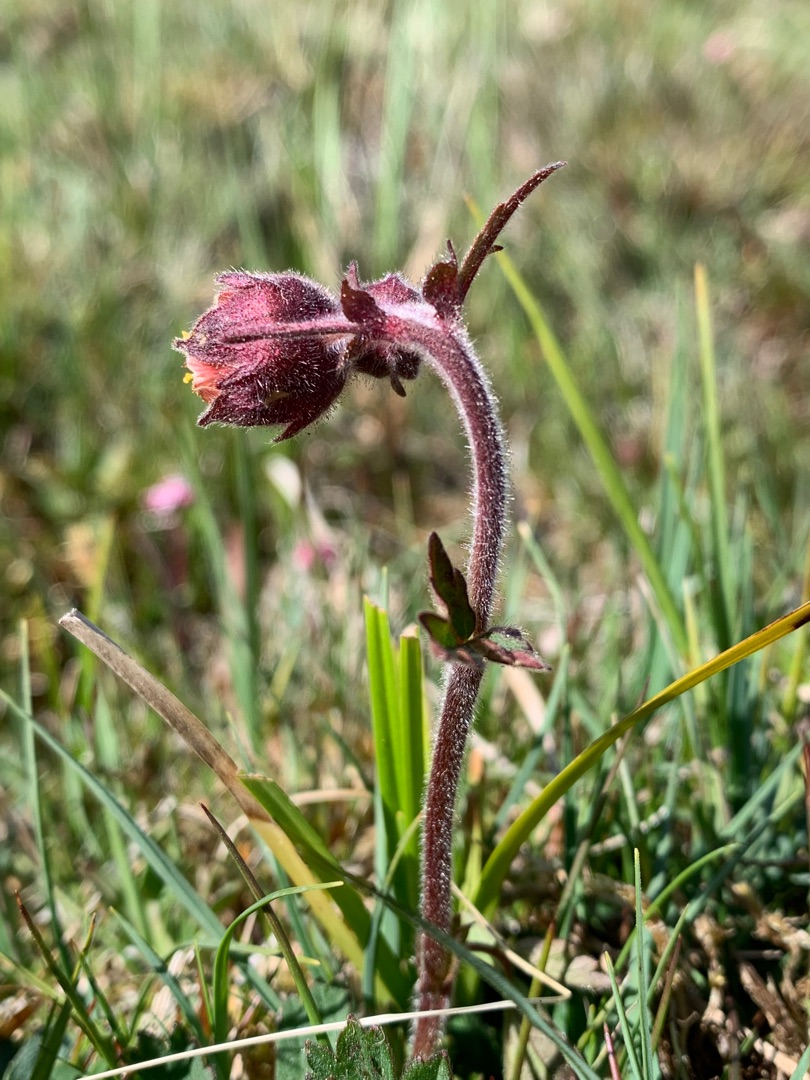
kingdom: Plantae
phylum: Tracheophyta
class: Magnoliopsida
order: Rosales
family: Rosaceae
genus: Geum
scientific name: Geum rivale
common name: Eng-nellikerod
